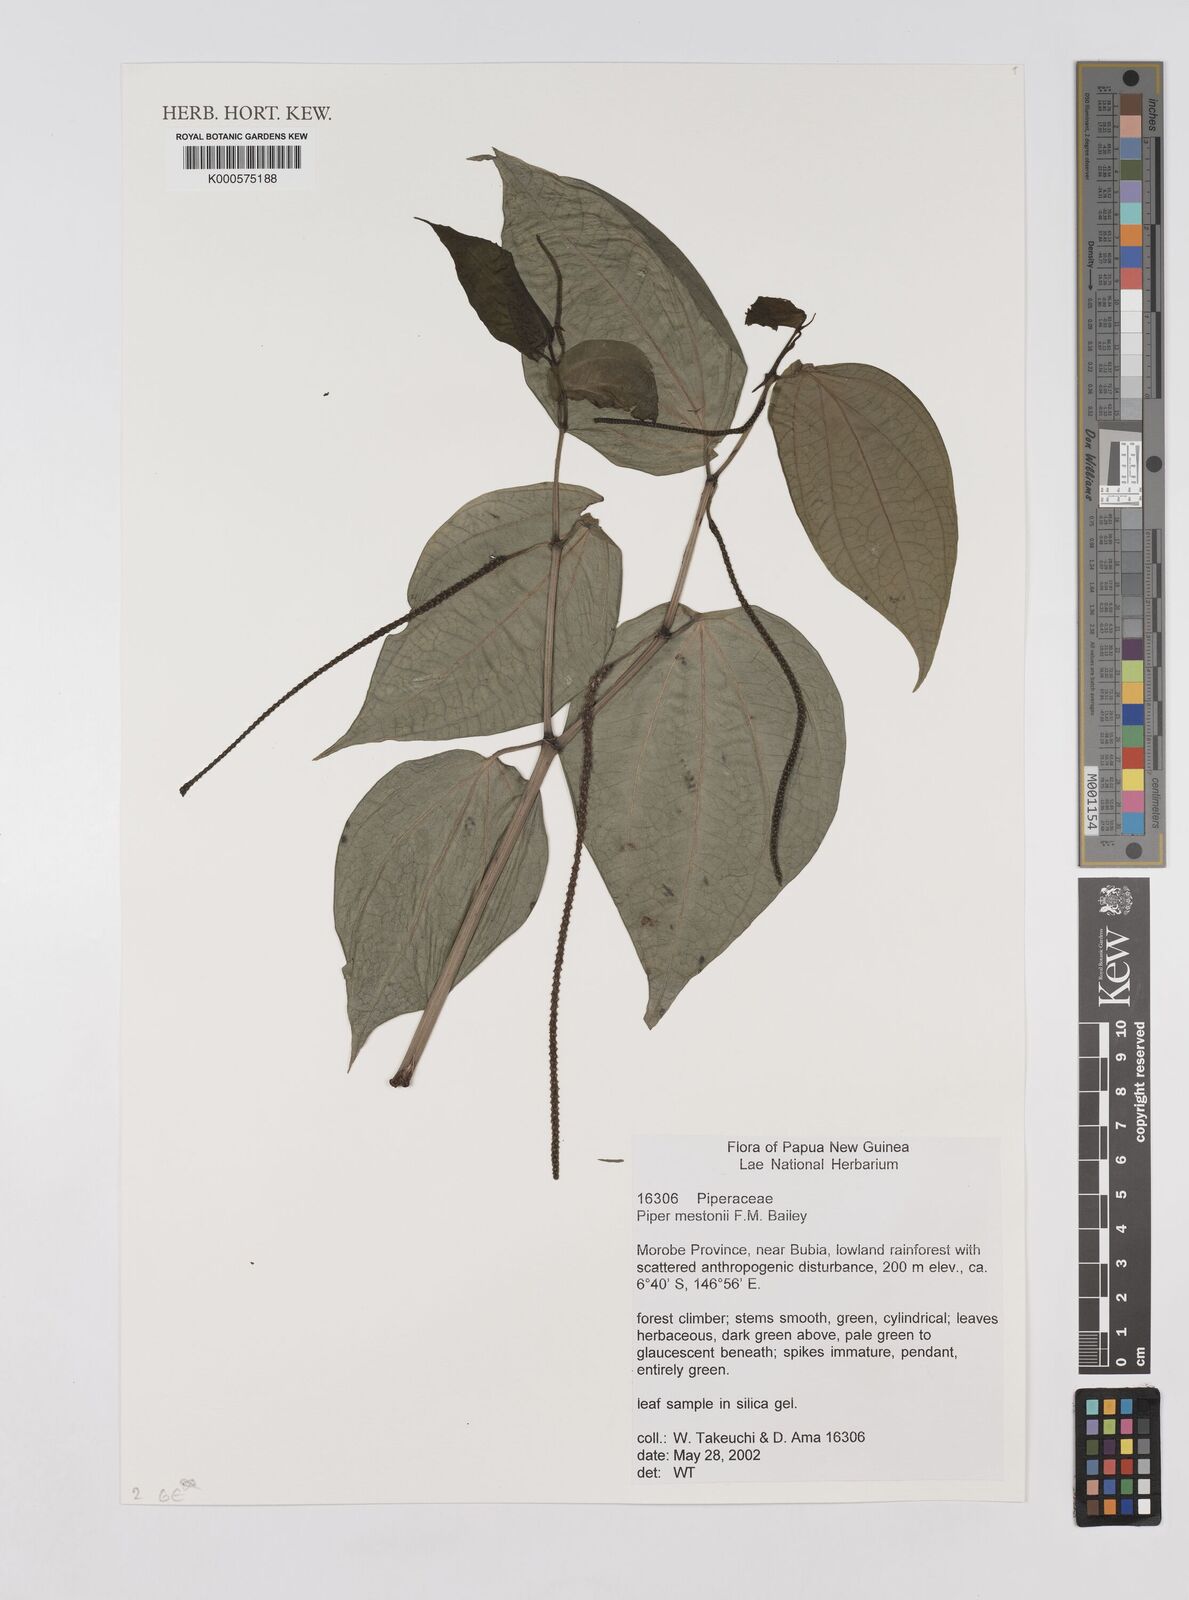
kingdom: Plantae
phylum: Tracheophyta
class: Magnoliopsida
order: Piperales
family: Piperaceae
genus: Piper
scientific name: Piper mestonii
